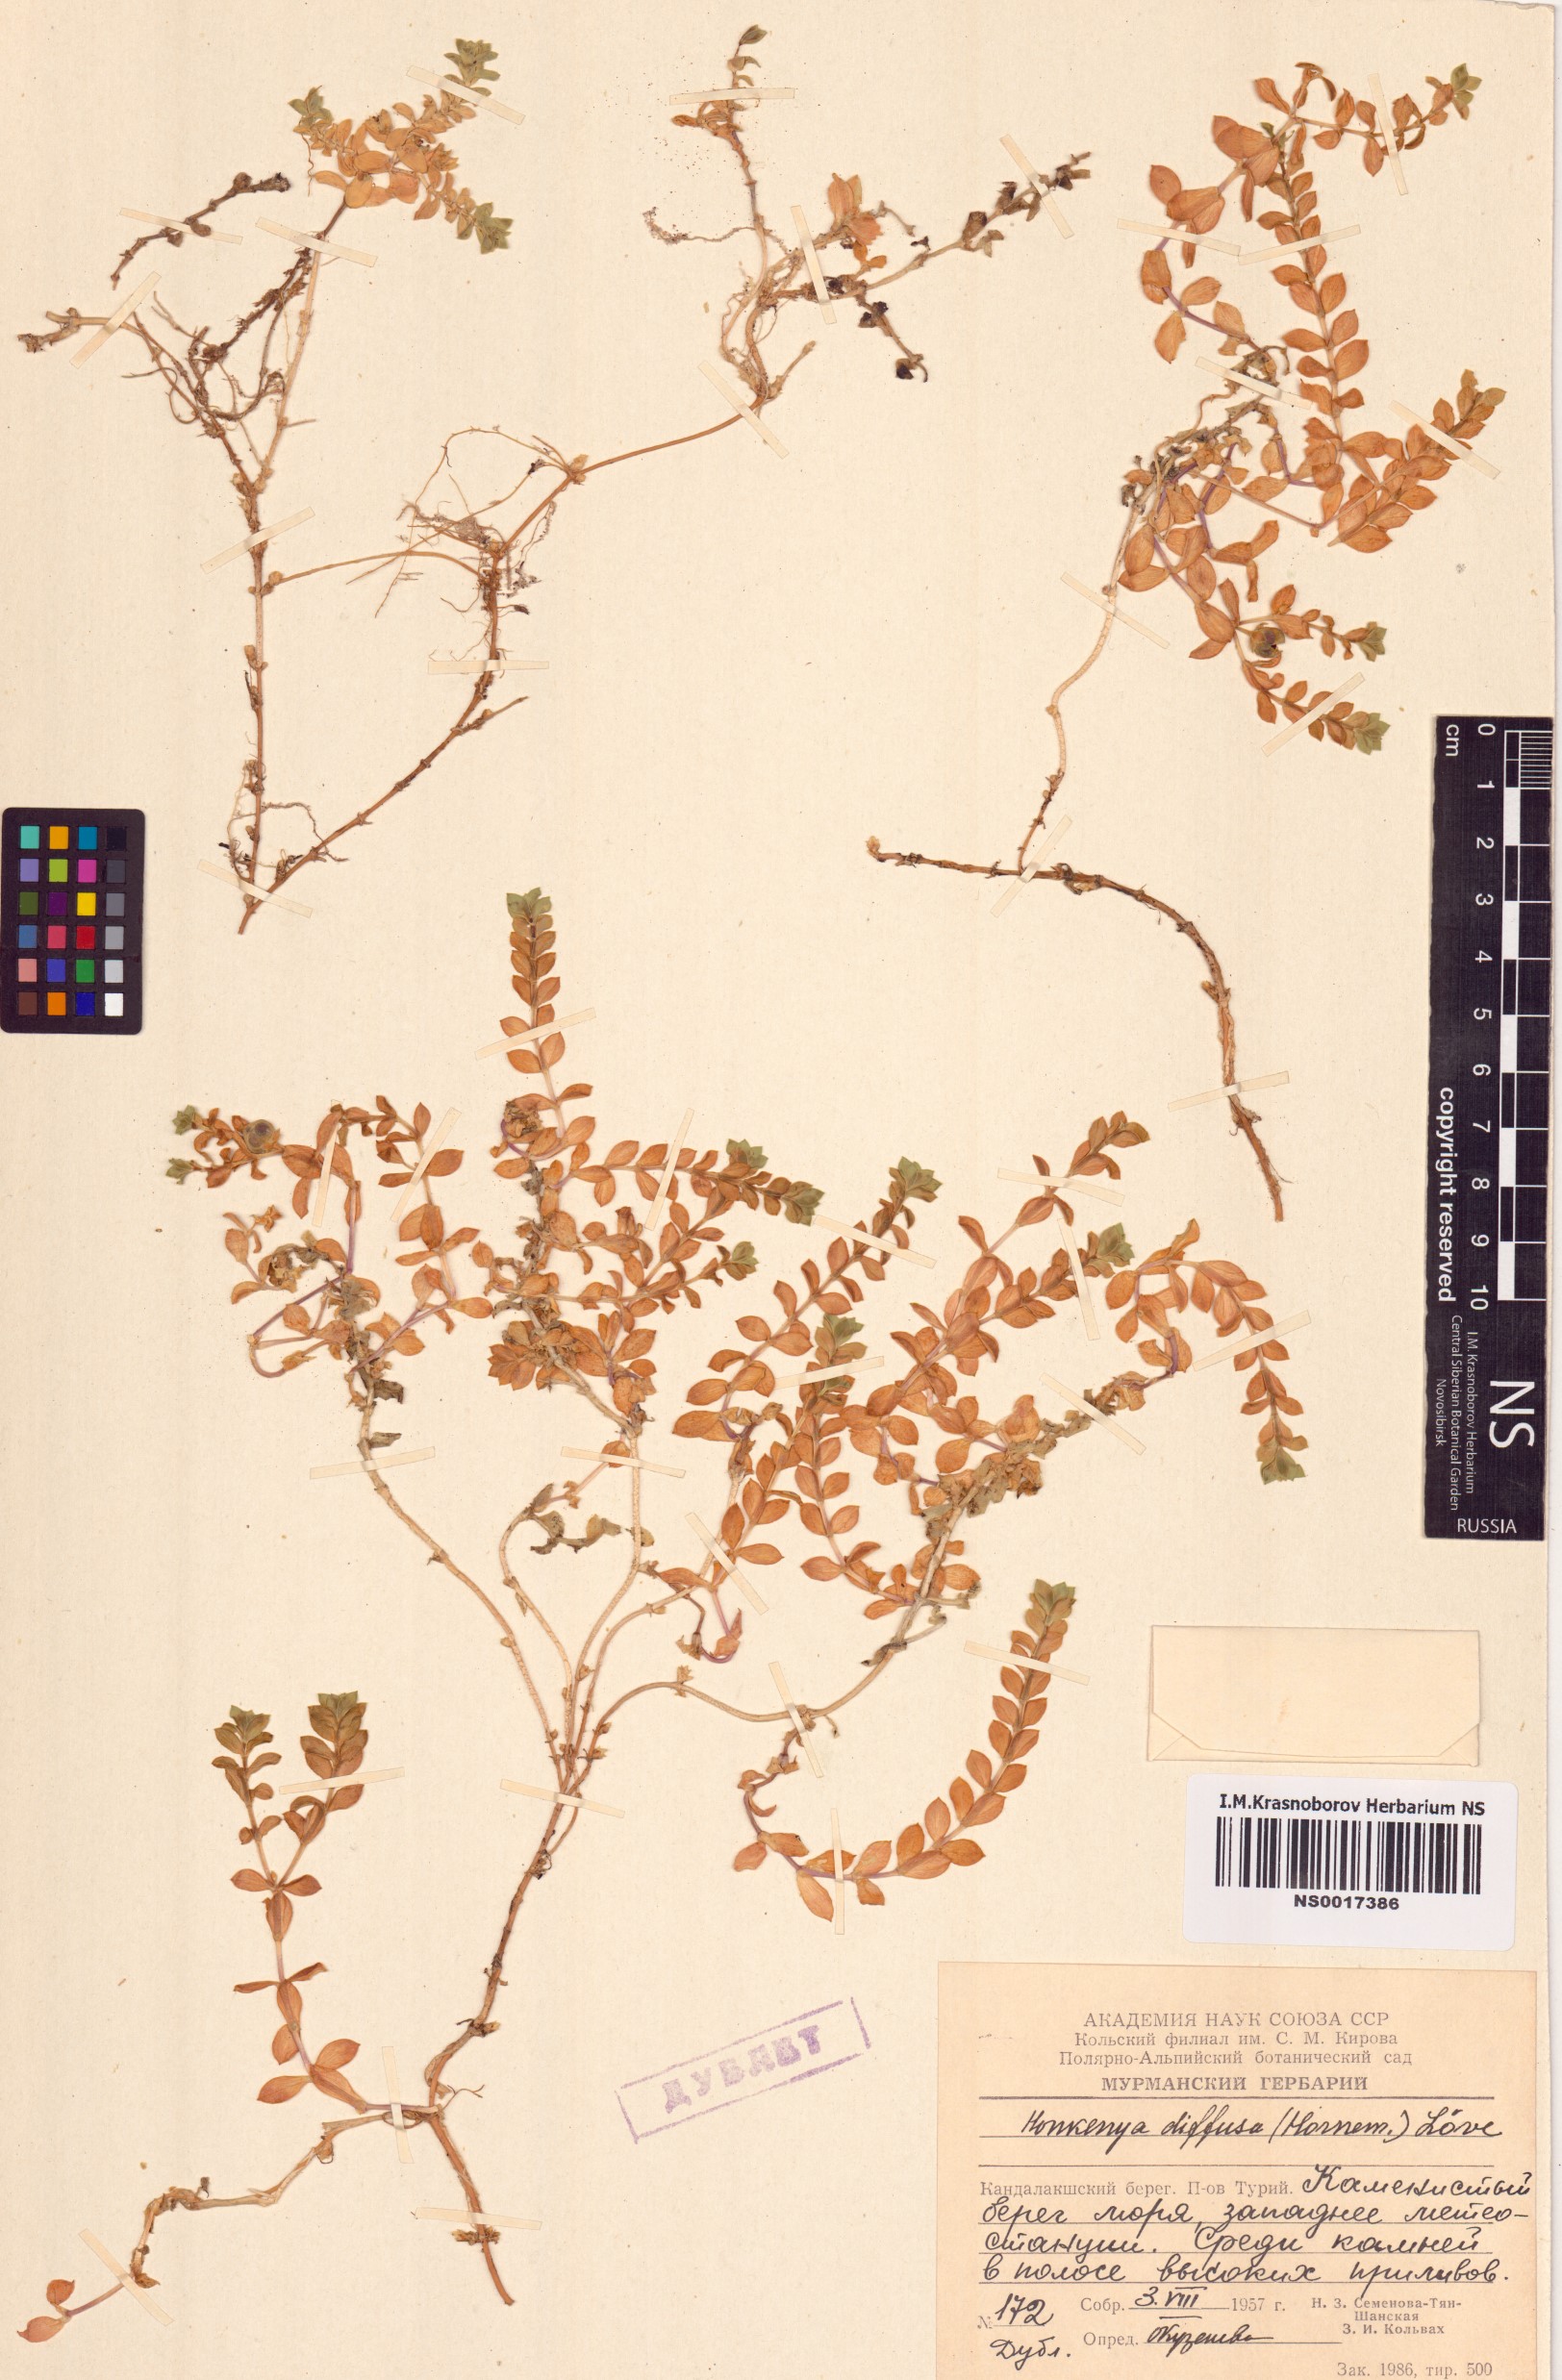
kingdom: Plantae
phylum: Tracheophyta
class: Magnoliopsida
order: Caryophyllales
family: Caryophyllaceae
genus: Honckenya
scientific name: Honckenya peploides
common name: Sea sandwort
